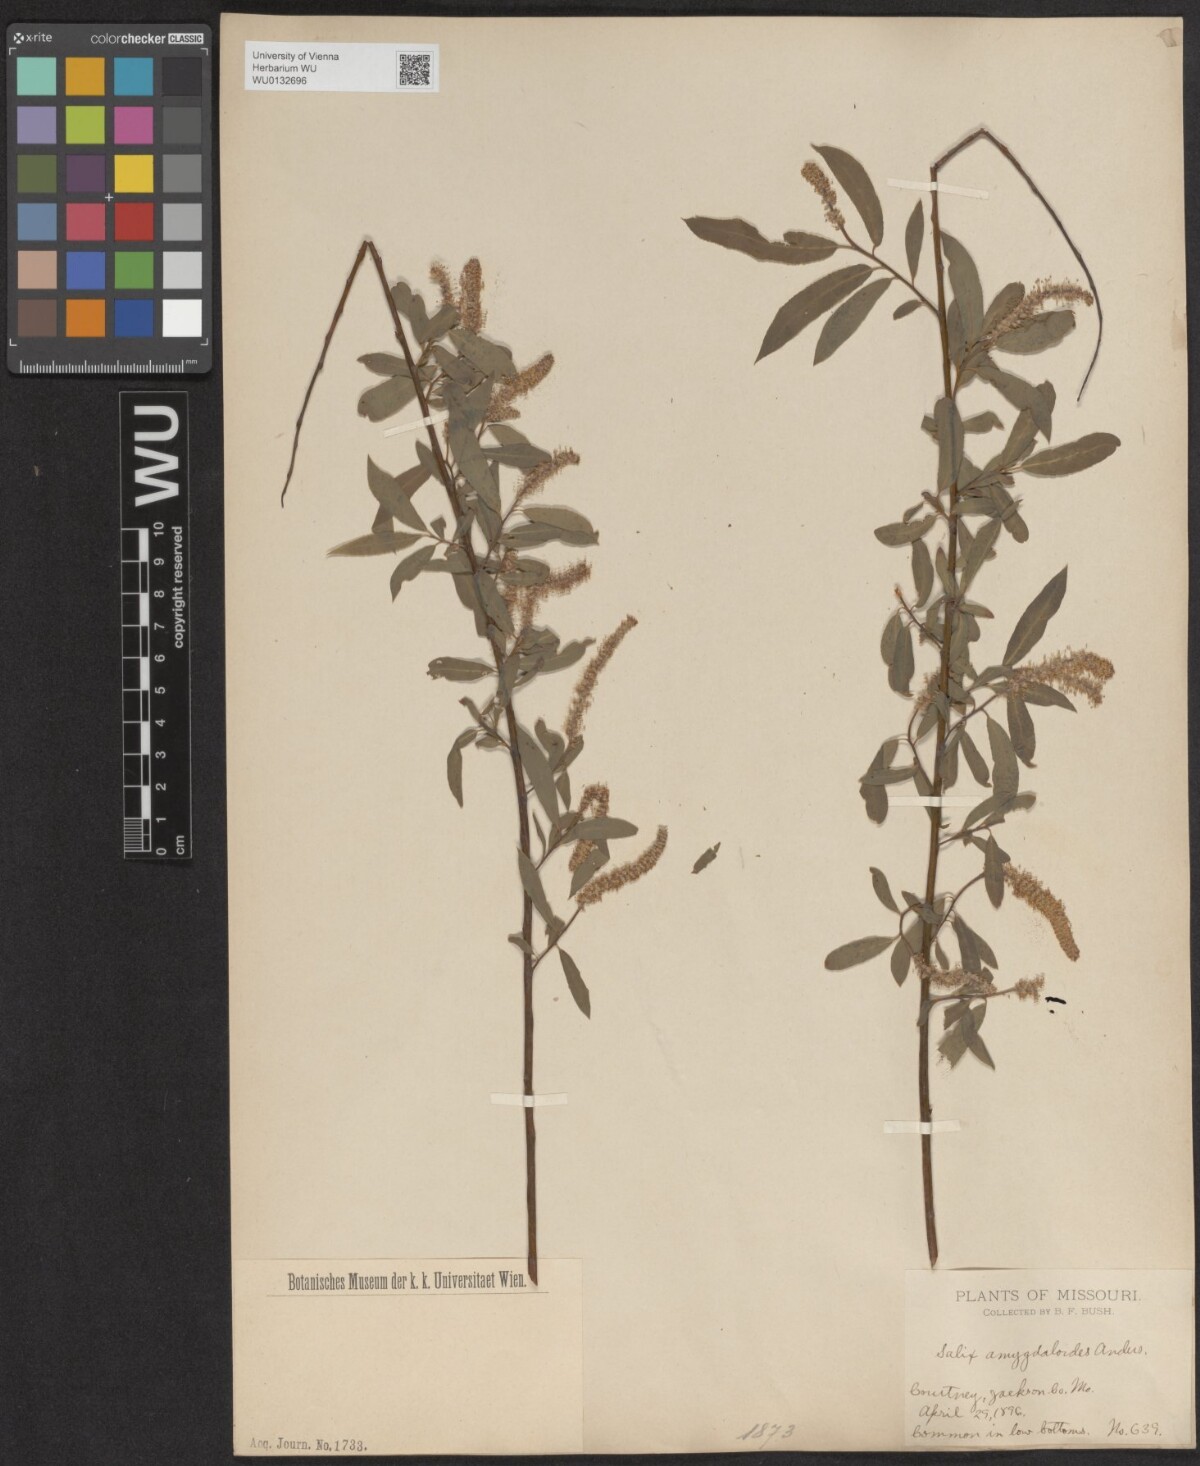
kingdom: Plantae
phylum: Tracheophyta
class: Magnoliopsida
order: Malpighiales
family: Salicaceae
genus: Salix
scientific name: Salix amygdaloides
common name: Peach leaf willow
